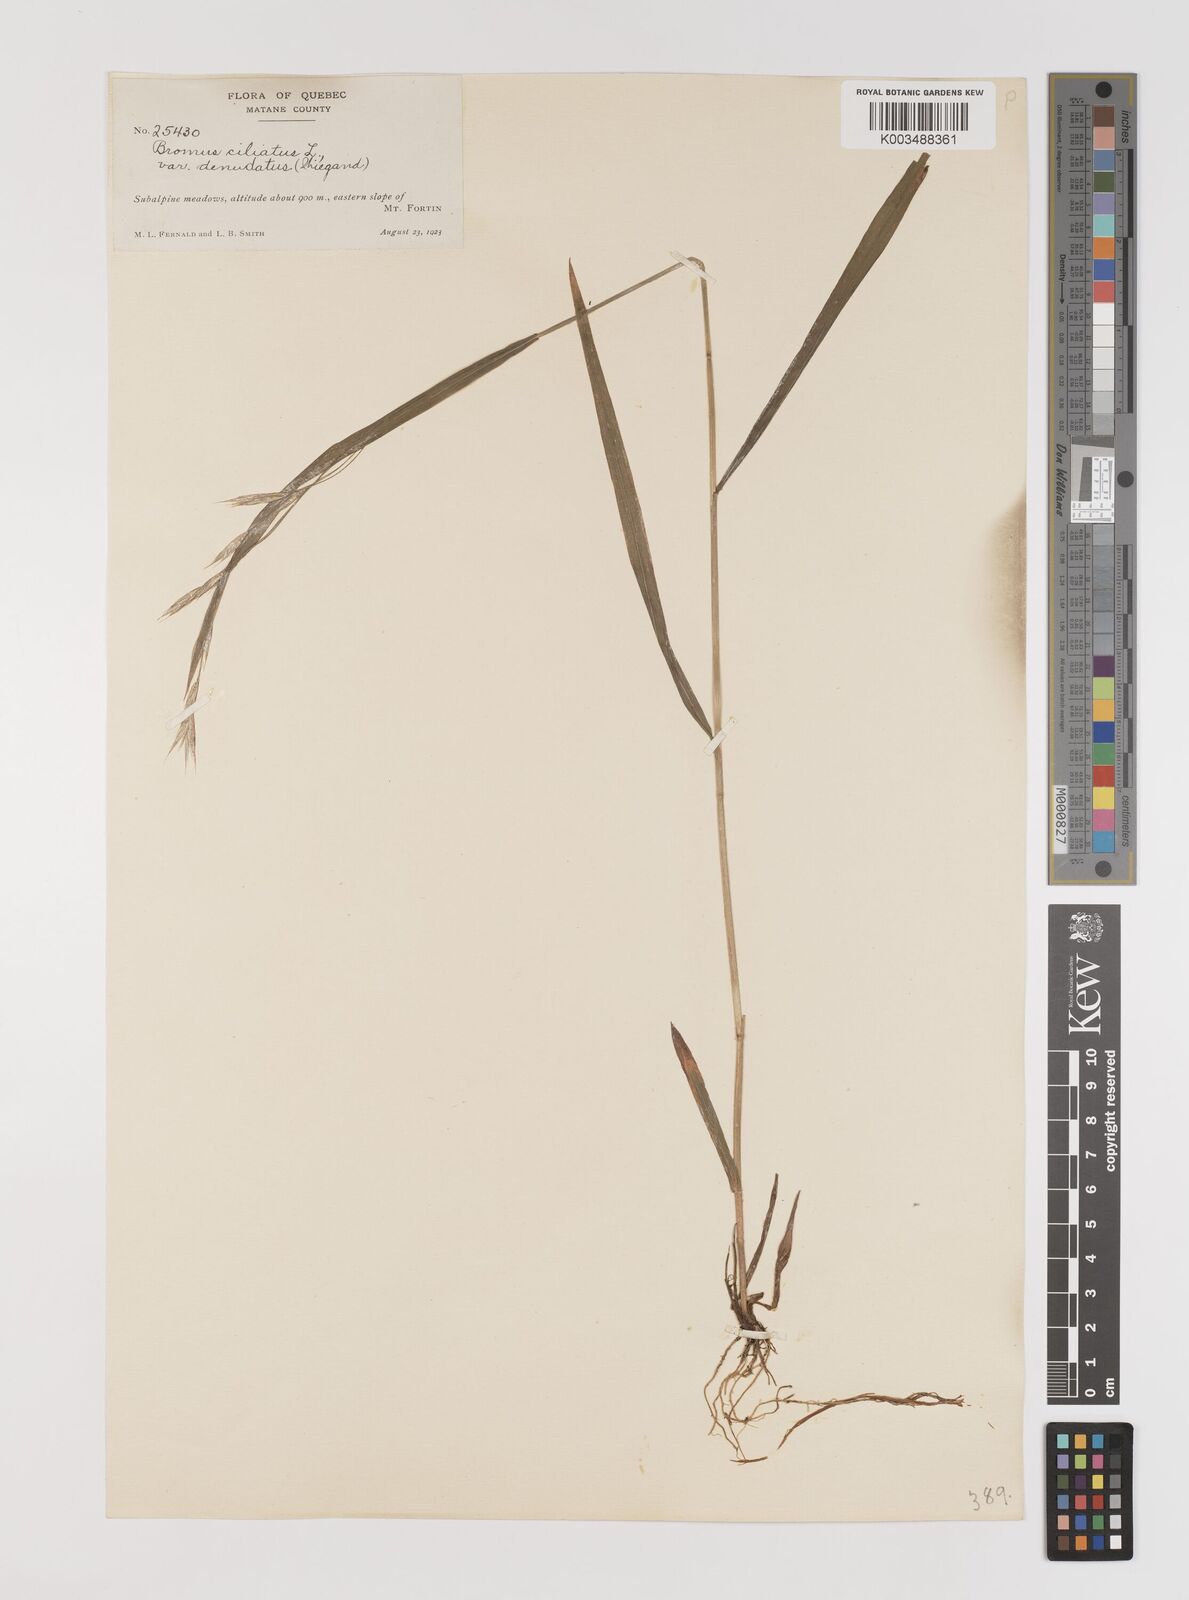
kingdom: Plantae
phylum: Tracheophyta
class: Liliopsida
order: Poales
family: Poaceae
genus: Bromus
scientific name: Bromus ciliatus
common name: Fringe brome
